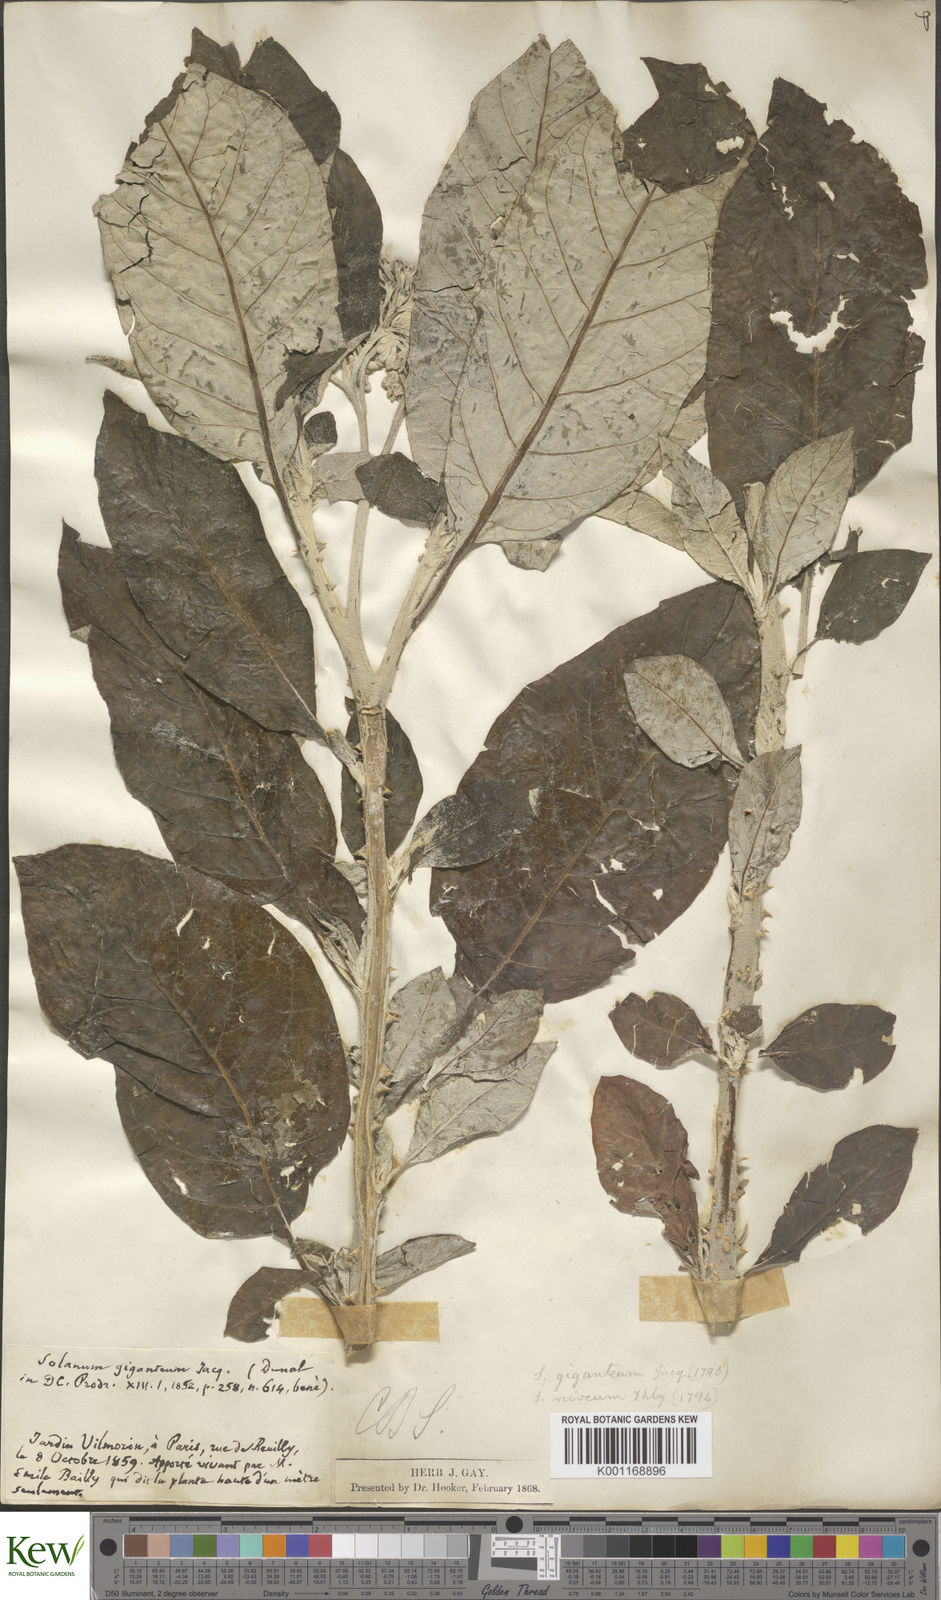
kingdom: Plantae
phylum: Tracheophyta
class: Magnoliopsida
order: Solanales
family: Solanaceae
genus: Solanum
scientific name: Solanum giganteum
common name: Healing-leaf-tree
